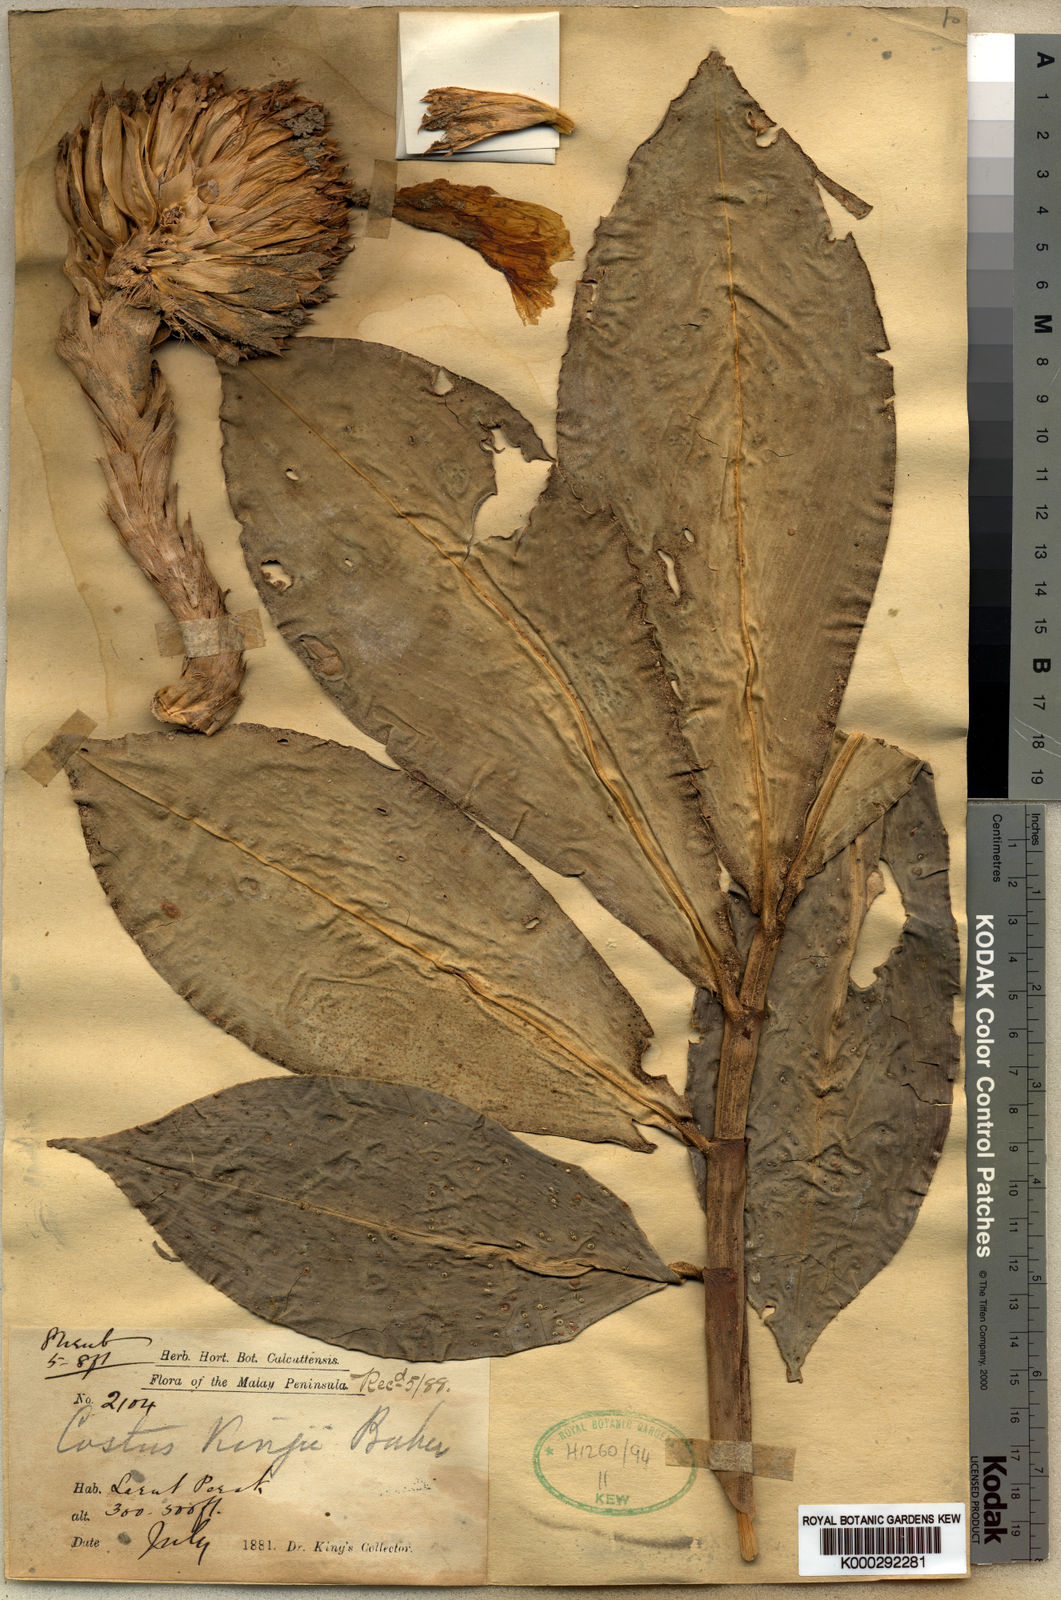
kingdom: Plantae
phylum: Tracheophyta
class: Liliopsida
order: Zingiberales
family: Costaceae
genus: Hellenia
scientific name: Hellenia globosa
